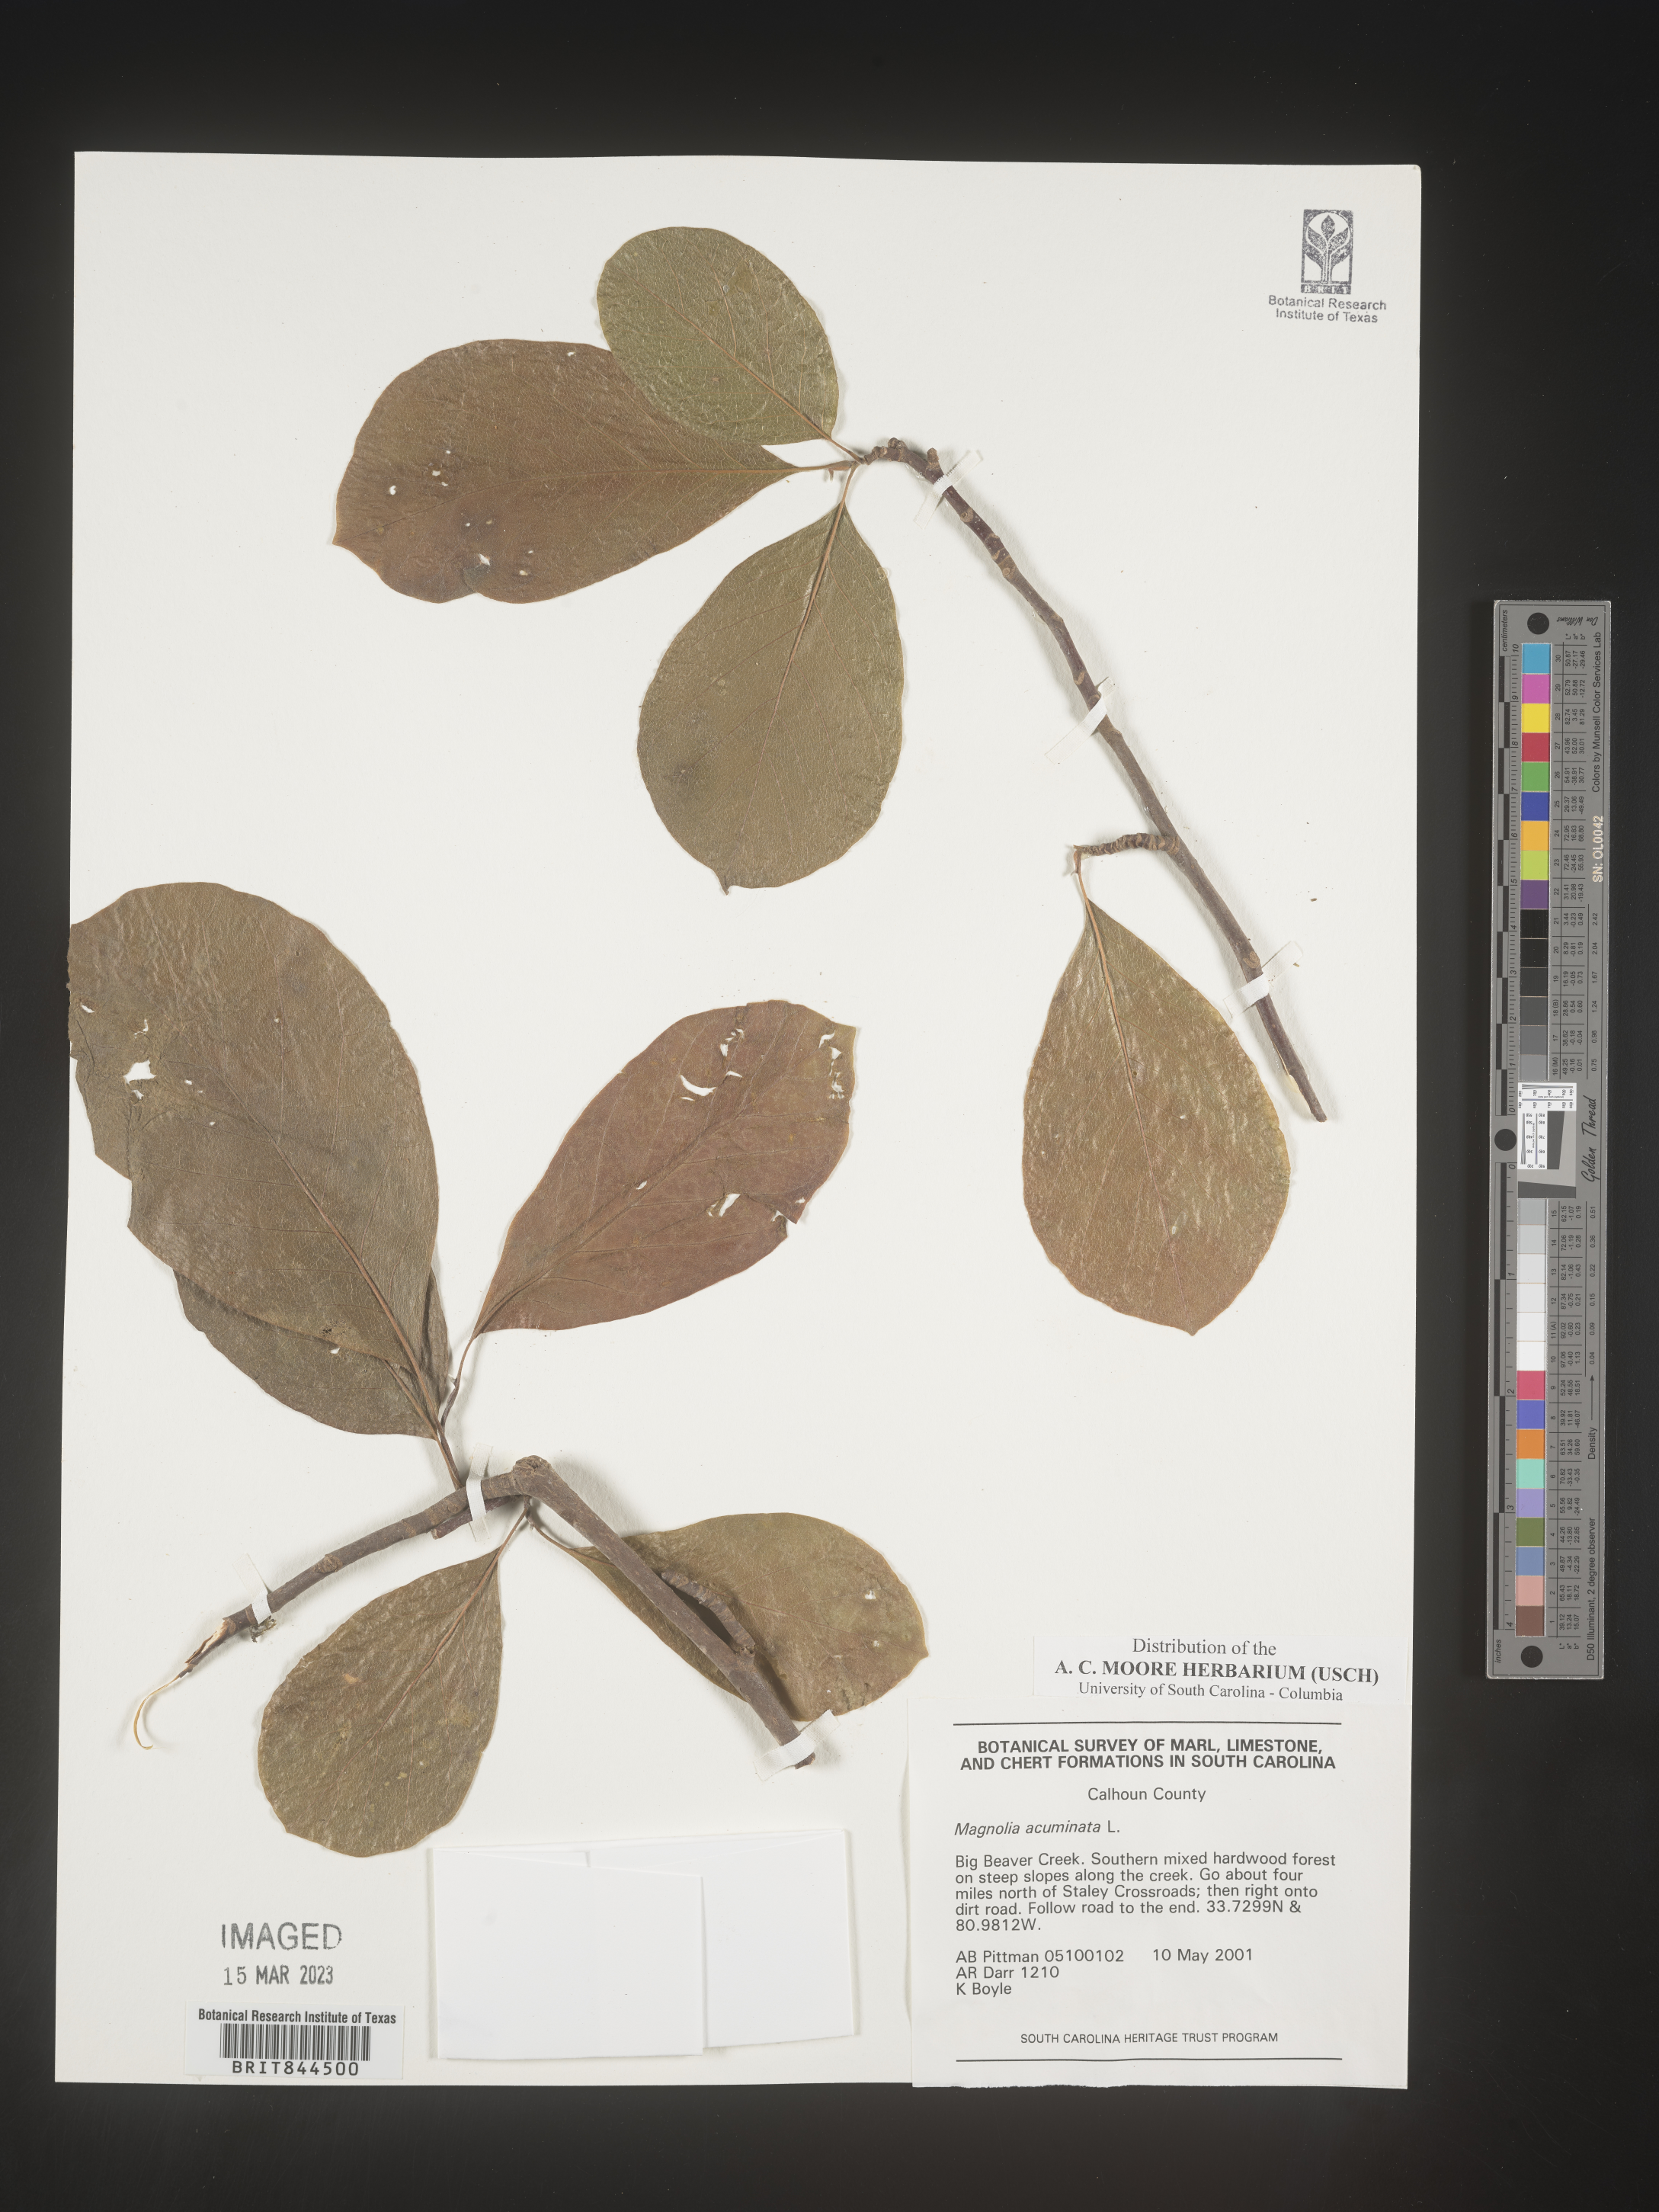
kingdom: Plantae
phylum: Tracheophyta
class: Magnoliopsida
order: Magnoliales
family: Magnoliaceae
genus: Magnolia
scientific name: Magnolia acuminata
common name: Cucumber magnolia
